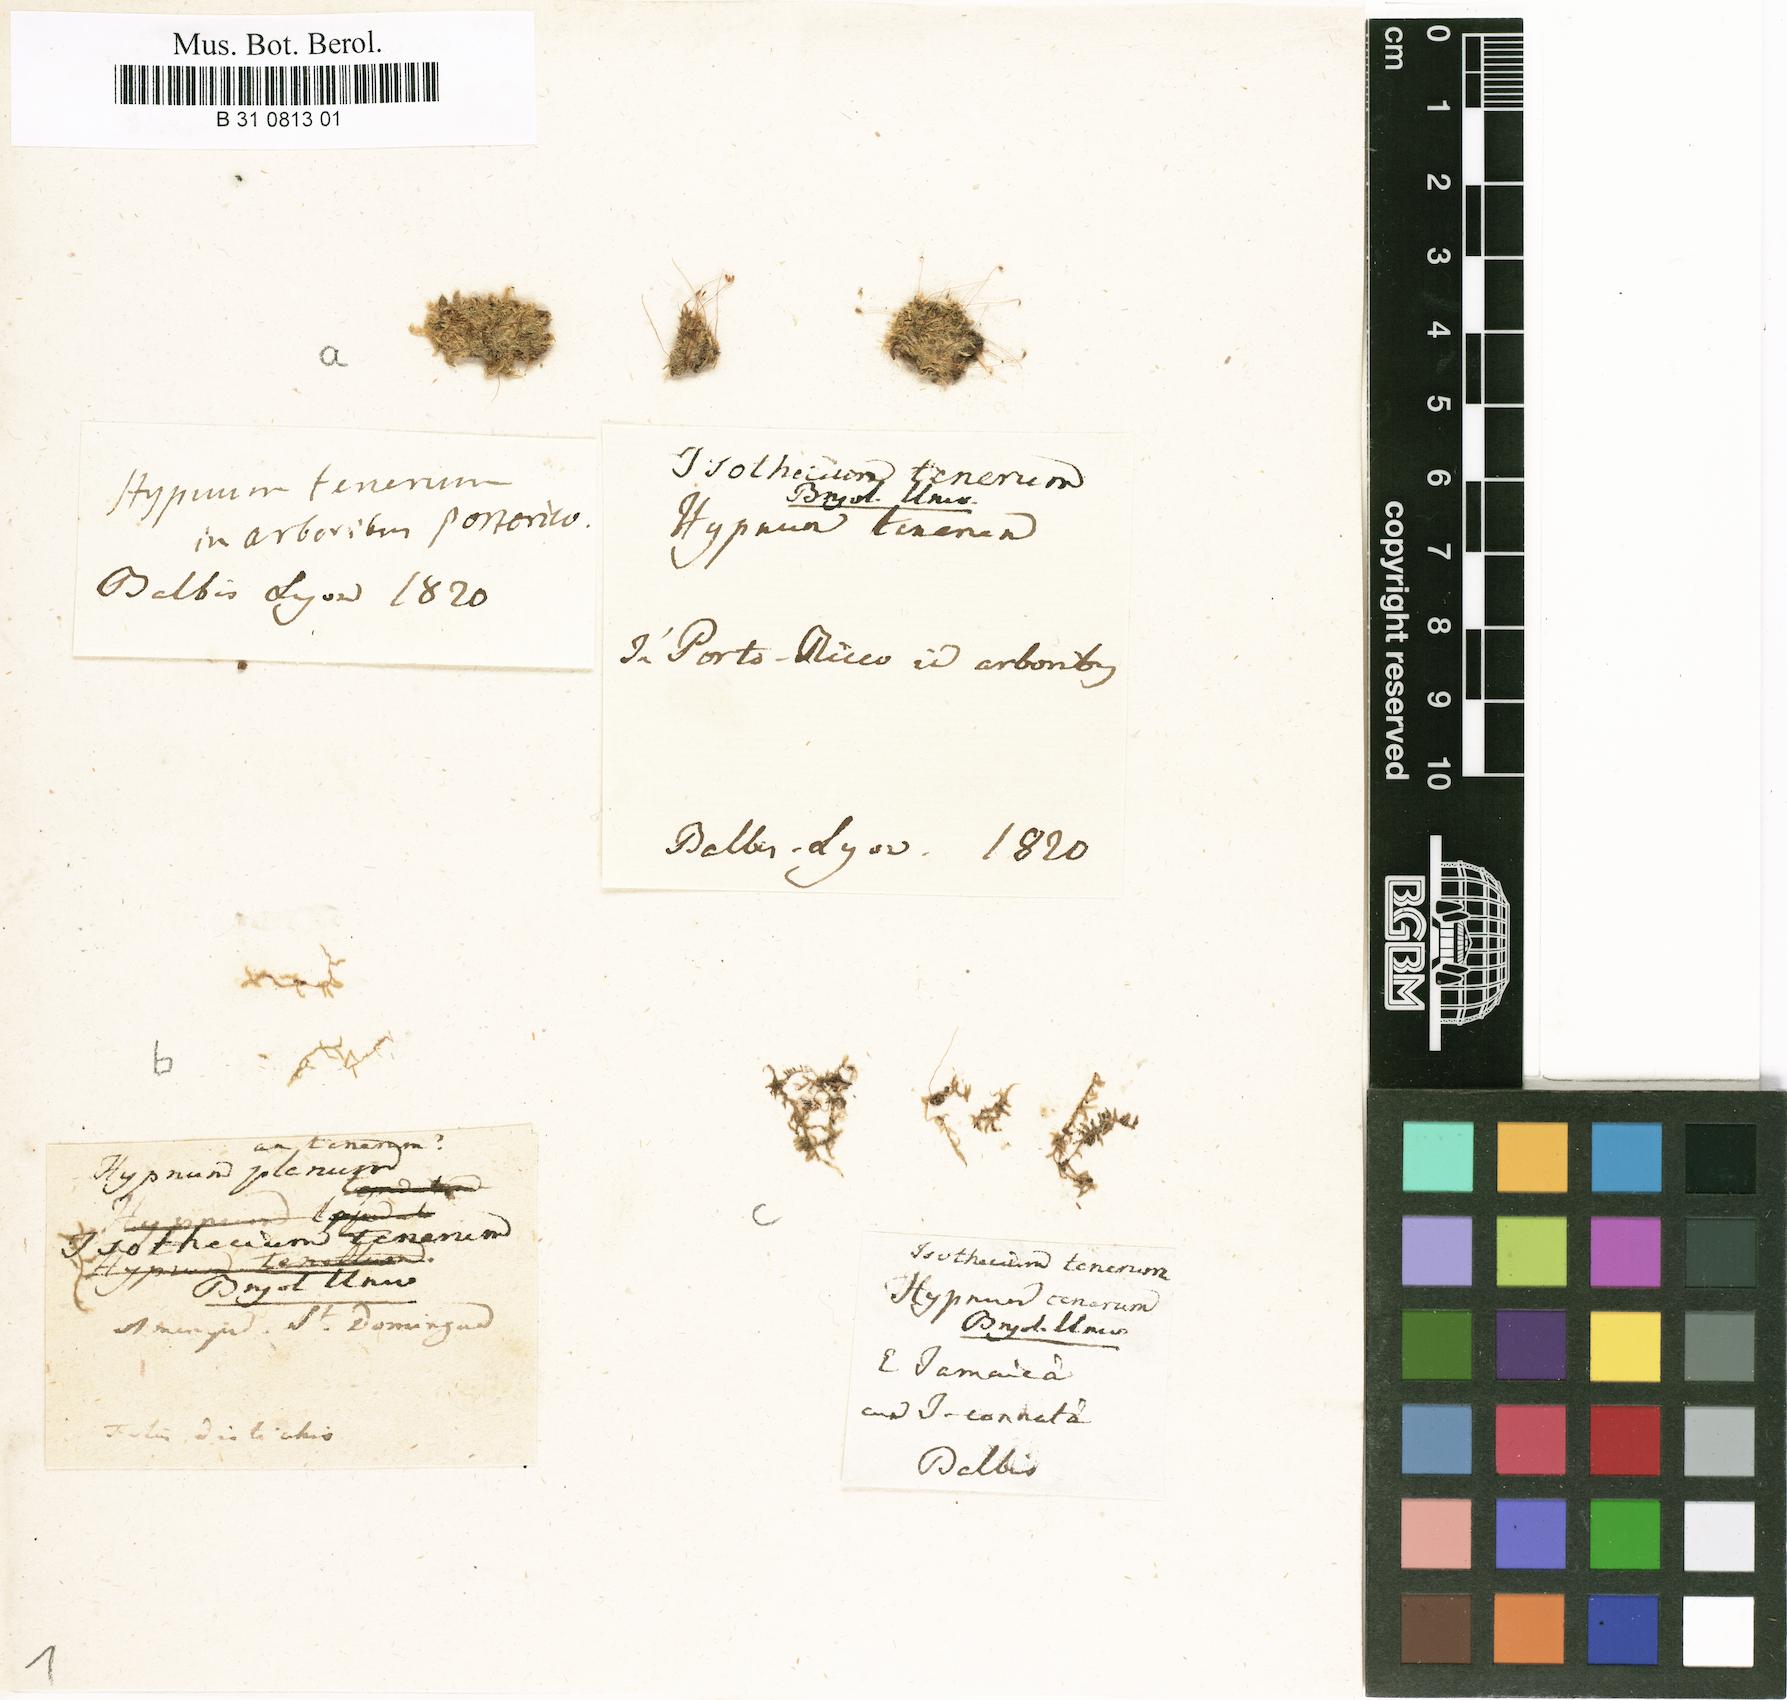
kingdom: Plantae
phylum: Bryophyta
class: Bryopsida
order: Hypnales
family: Pylaisiadelphaceae
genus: Isopterygium
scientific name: Isopterygium tenerum
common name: Isopterygium moss
